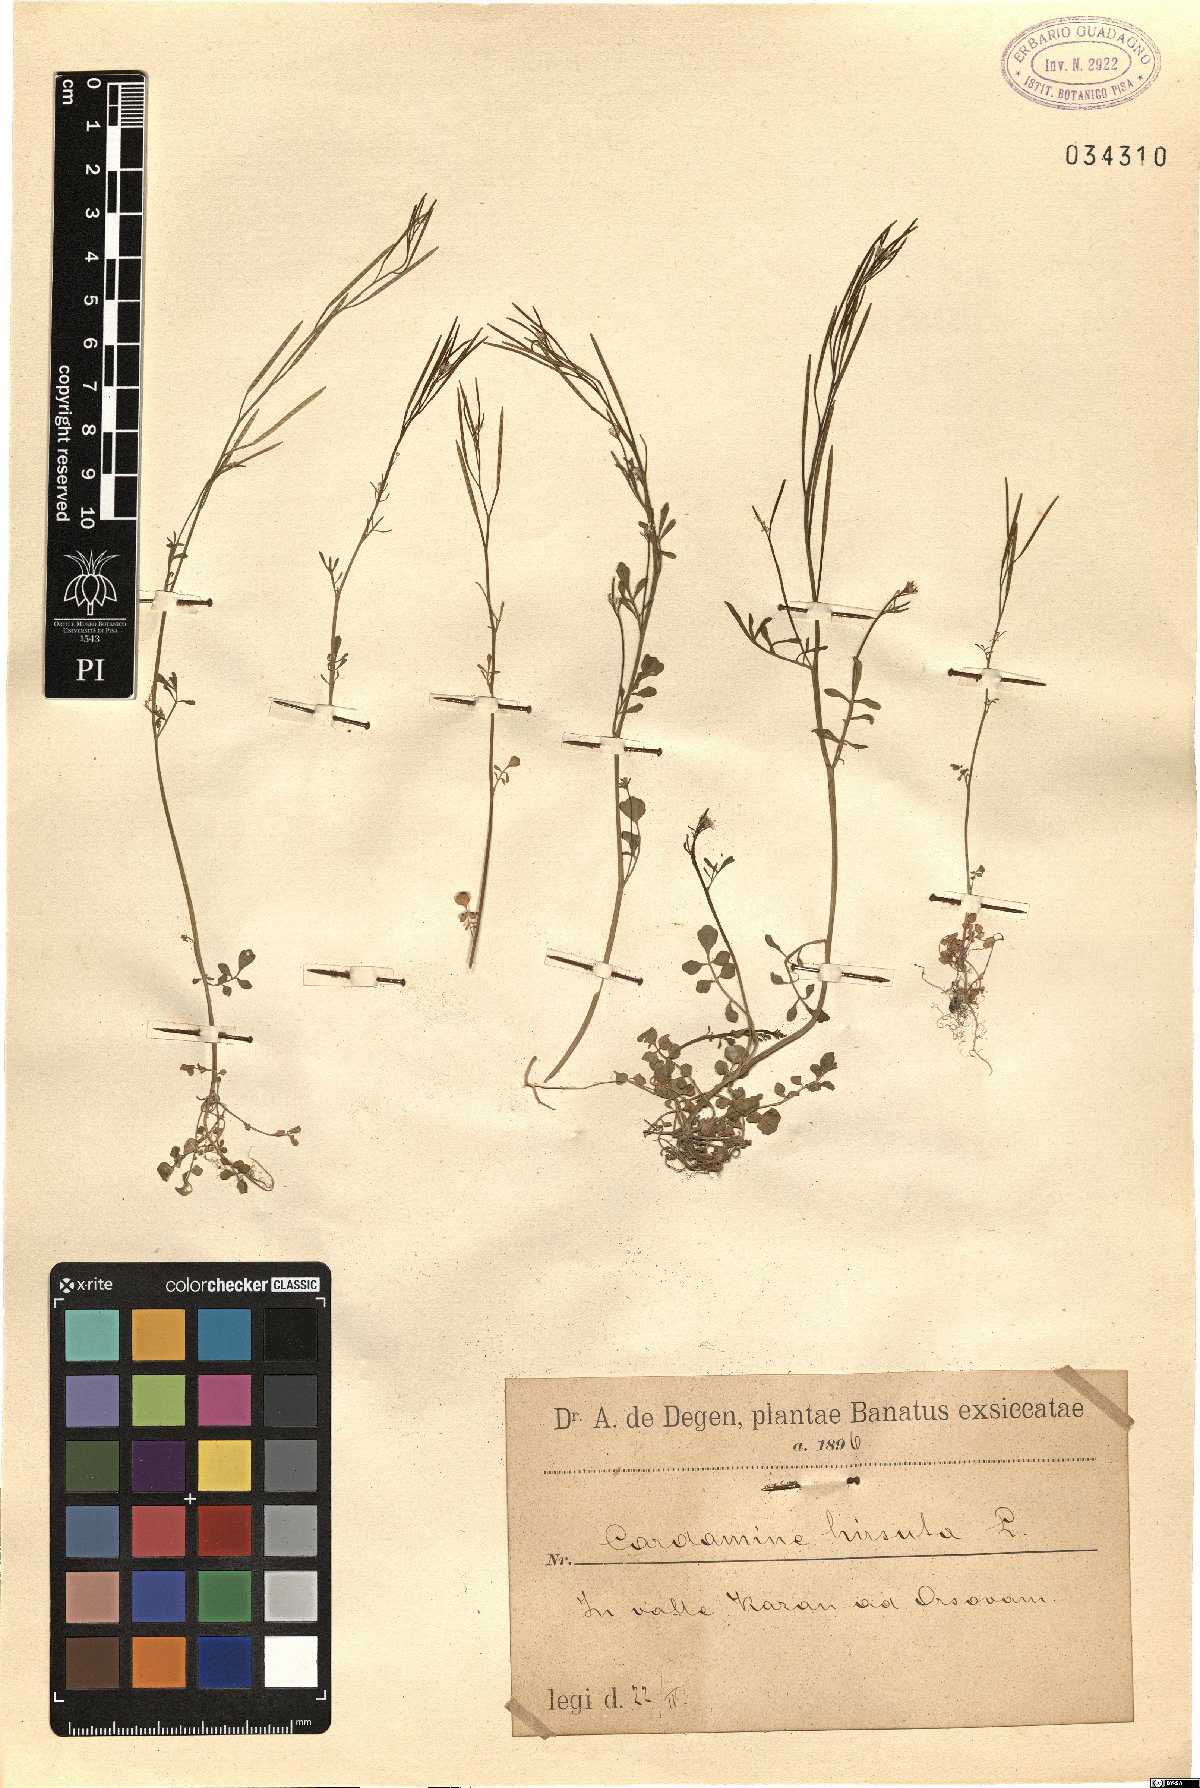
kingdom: Plantae
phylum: Tracheophyta
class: Magnoliopsida
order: Brassicales
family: Brassicaceae
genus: Cardamine
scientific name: Cardamine hirsuta
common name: Hairy bittercress
